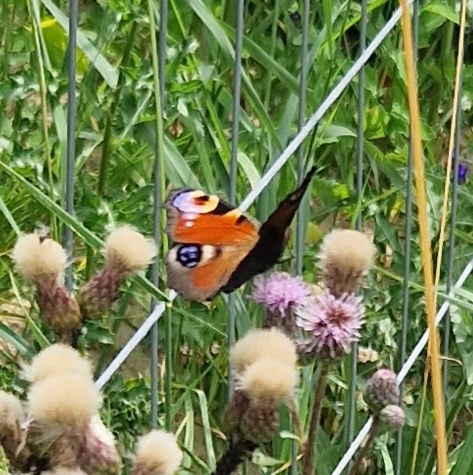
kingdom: Animalia
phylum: Arthropoda
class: Insecta
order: Lepidoptera
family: Nymphalidae
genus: Aglais
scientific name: Aglais io
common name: Dagpåfugleøje
